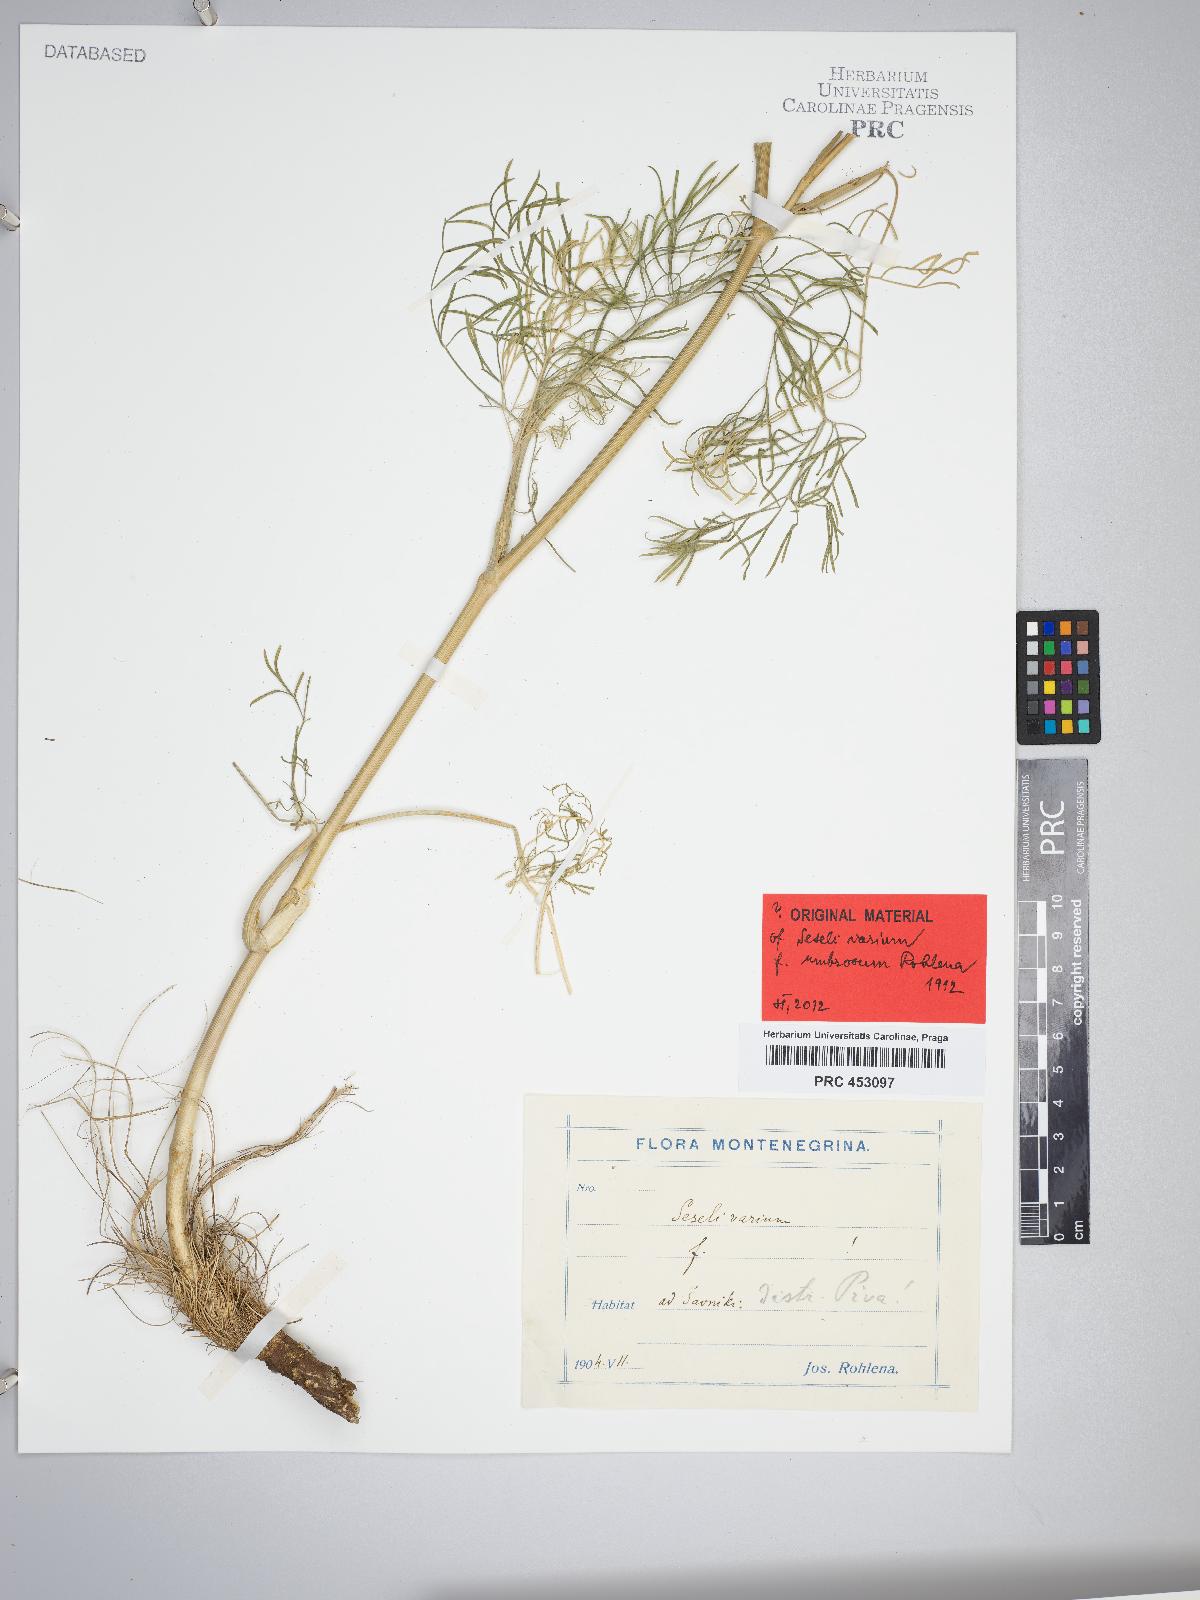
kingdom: Plantae
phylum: Tracheophyta
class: Magnoliopsida
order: Apiales
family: Apiaceae
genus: Seseli
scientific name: Seseli pallasii
